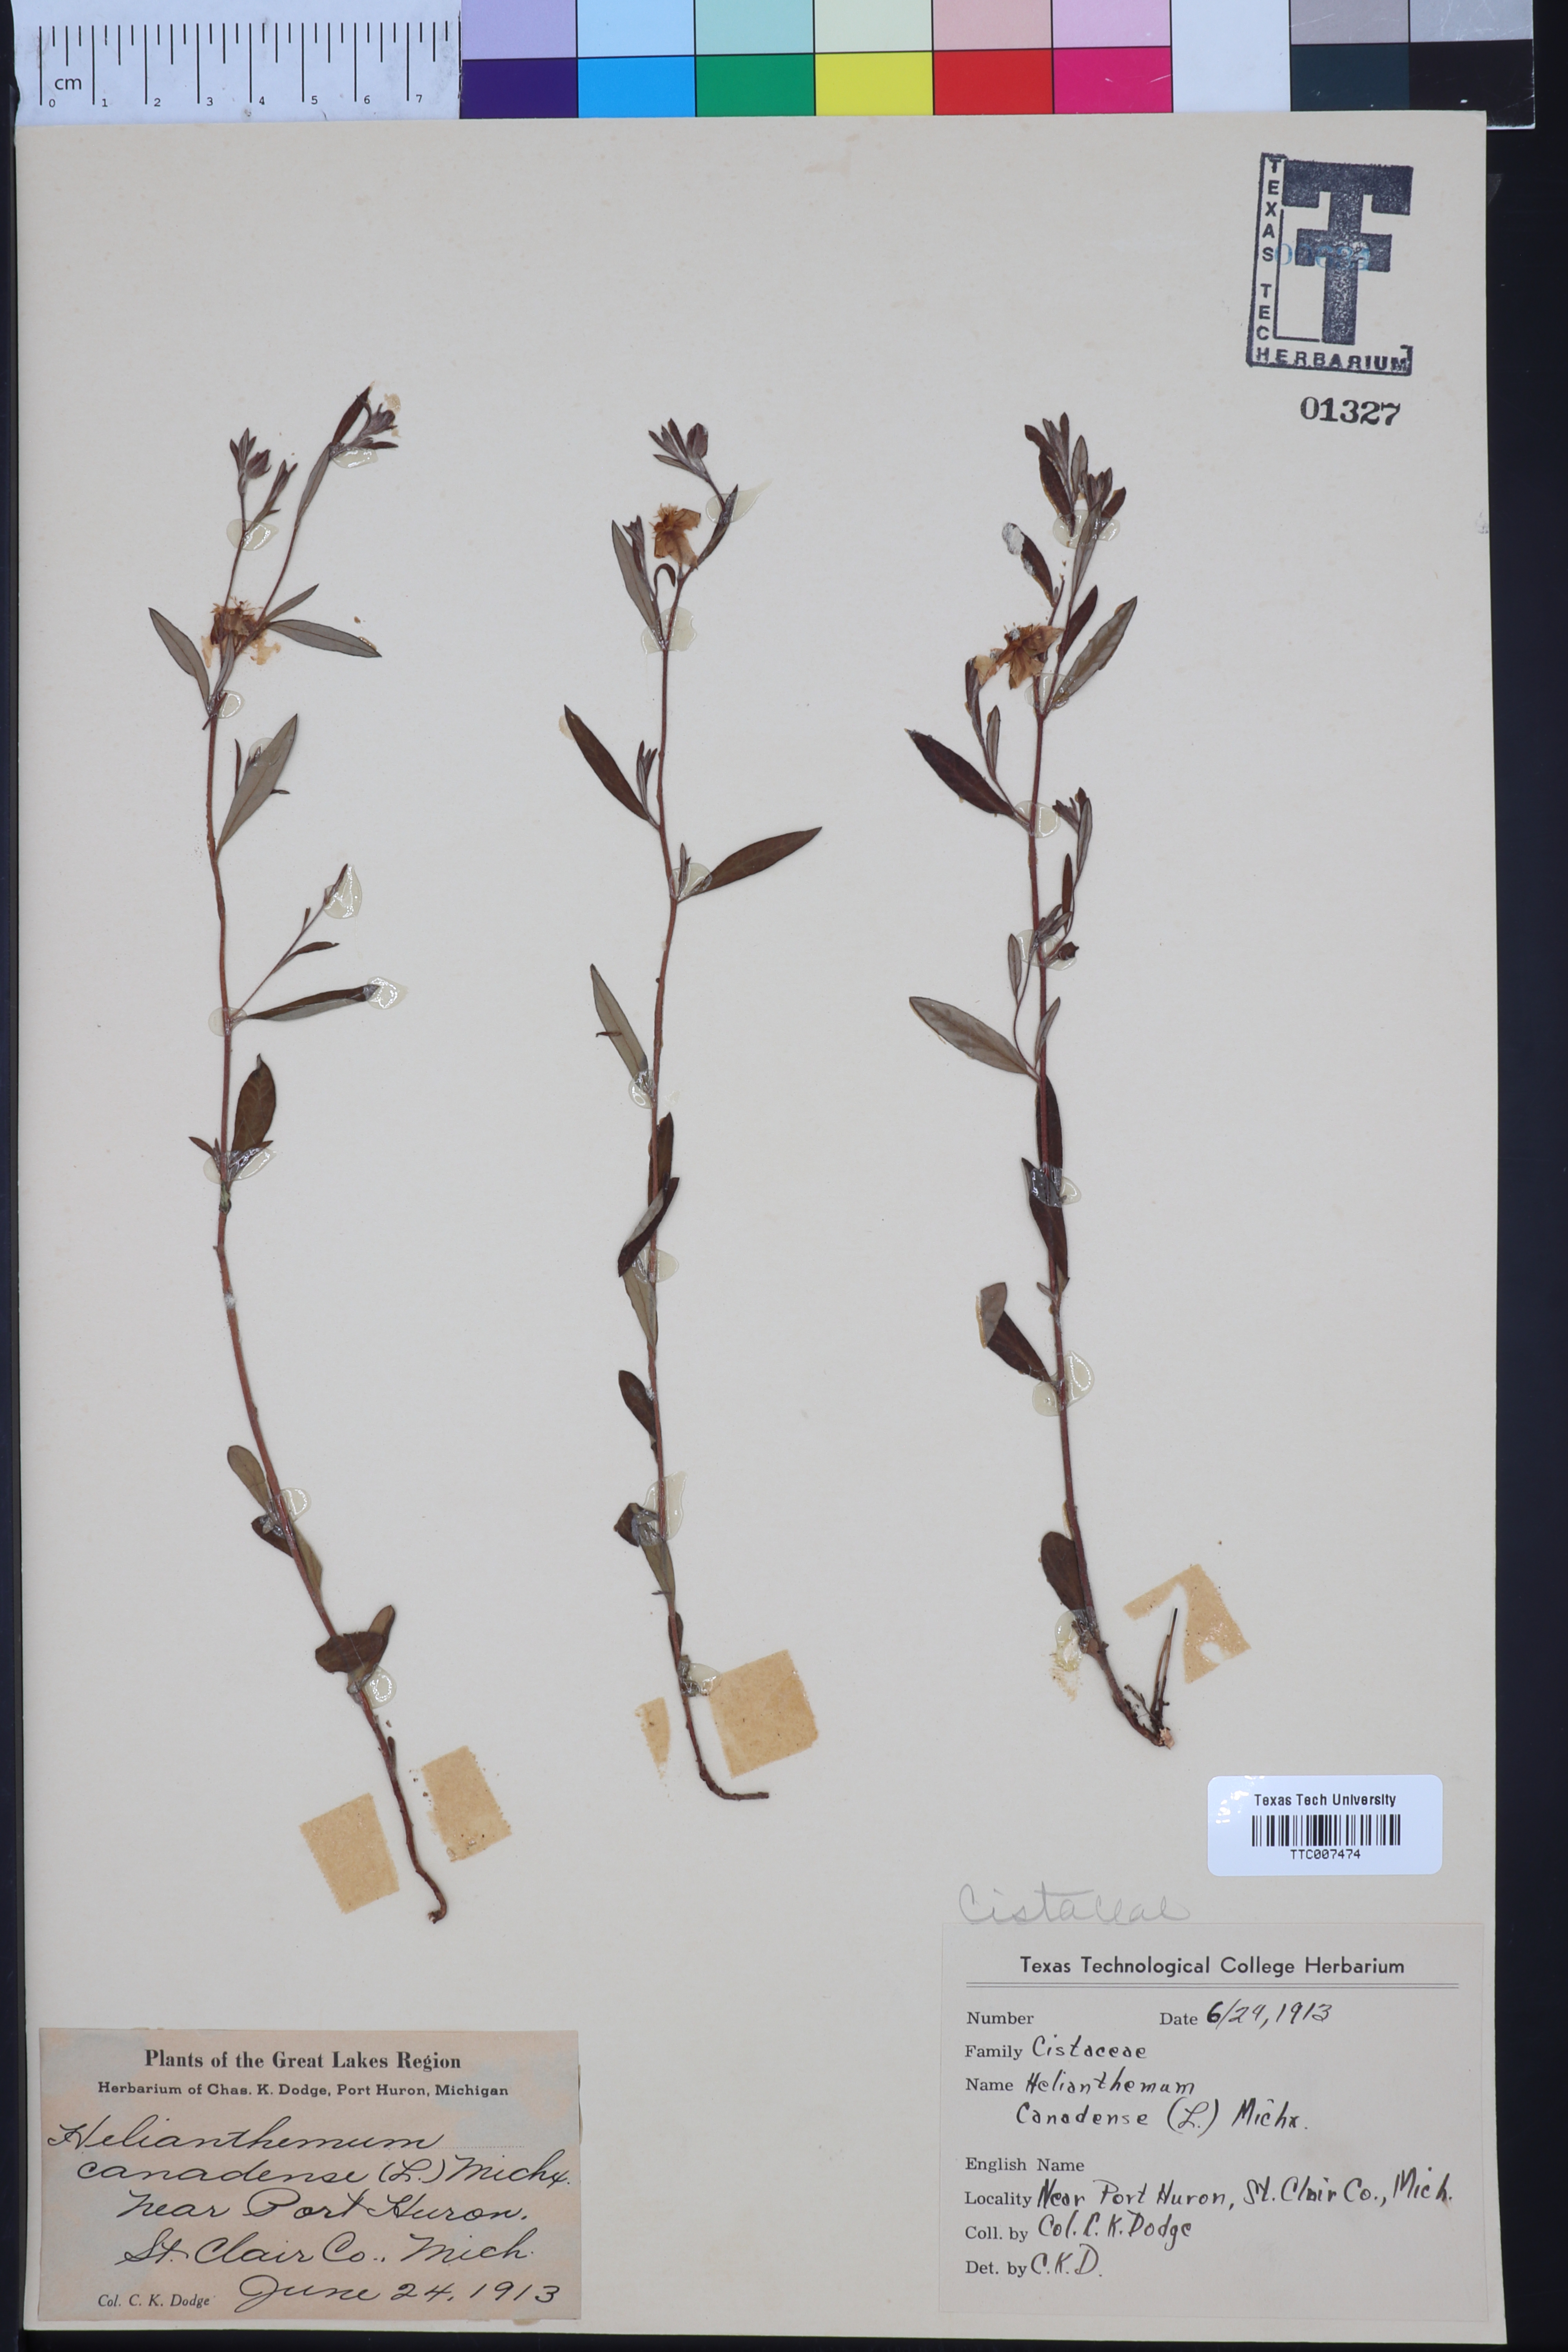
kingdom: Plantae
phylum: Tracheophyta
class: Magnoliopsida
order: Malvales
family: Cistaceae
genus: Crocanthemum
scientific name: Crocanthemum canadense
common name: Canada frostweed
